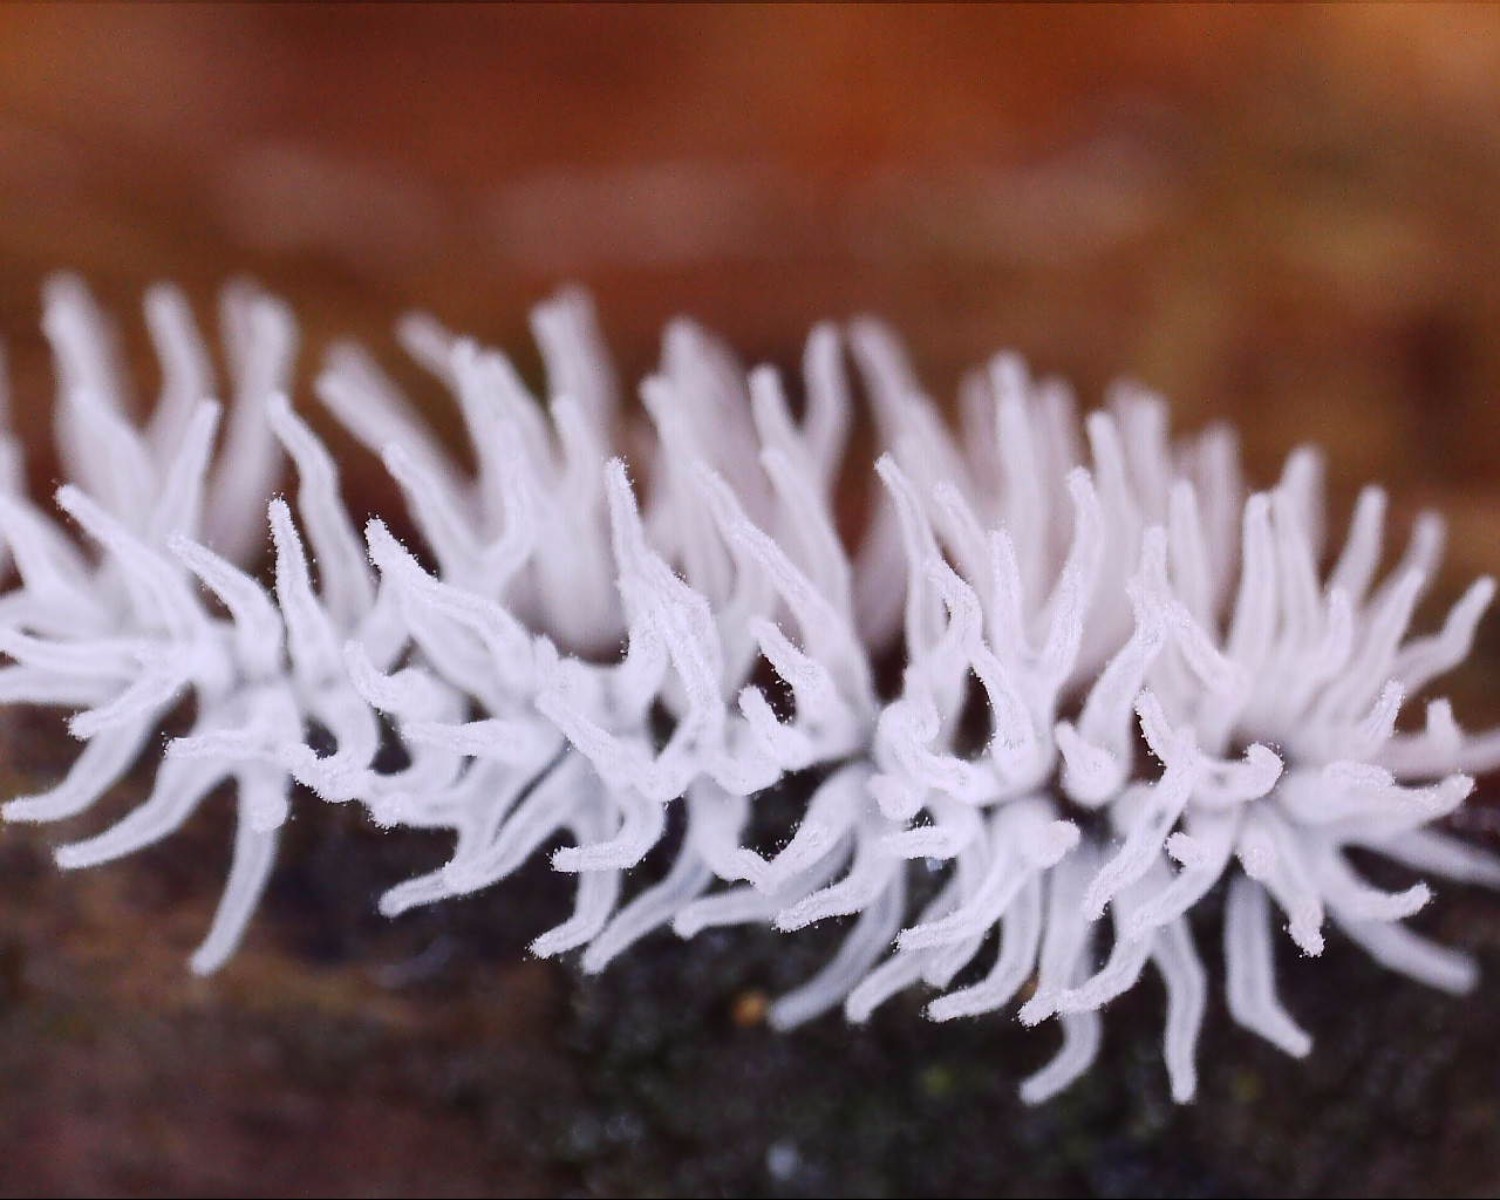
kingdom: Protozoa
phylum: Mycetozoa
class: Protosteliomycetes
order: Ceratiomyxales
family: Ceratiomyxaceae
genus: Ceratiomyxa
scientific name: Ceratiomyxa fruticulosa
